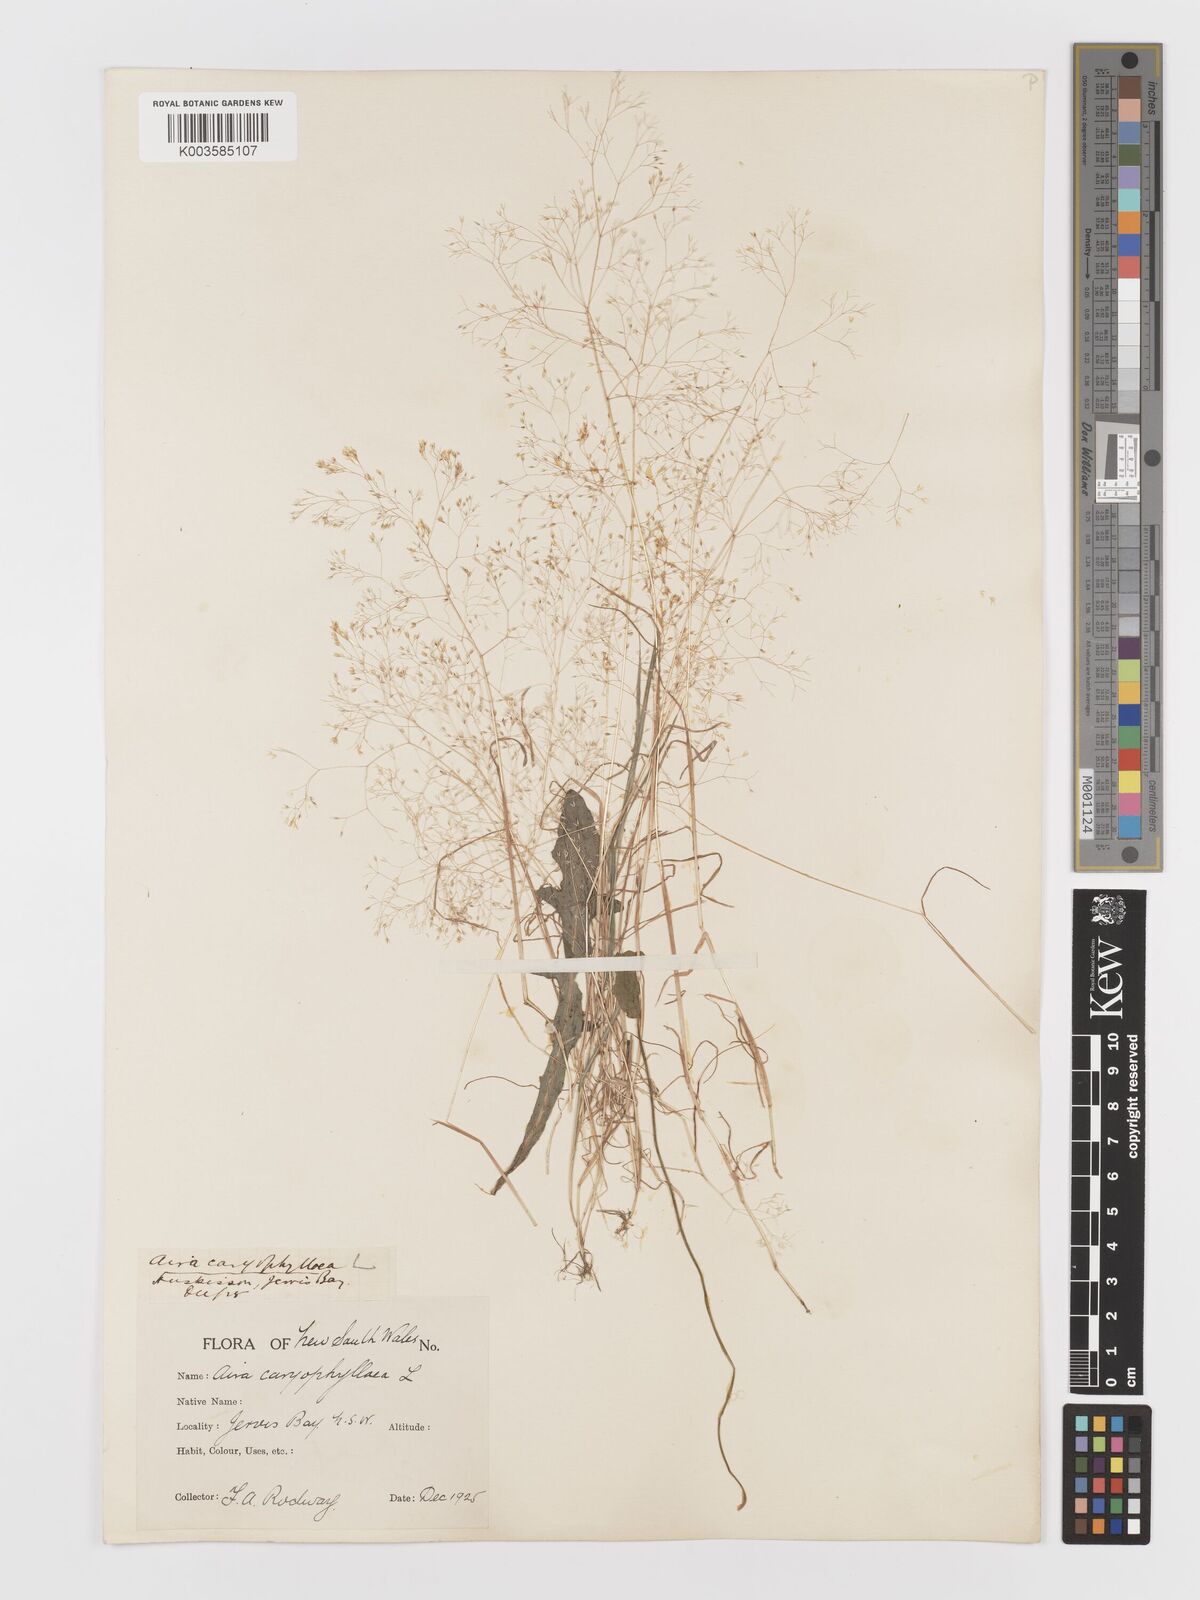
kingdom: Plantae
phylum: Tracheophyta
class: Liliopsida
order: Poales
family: Poaceae
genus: Aira
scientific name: Aira caryophyllea
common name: Silver hairgrass
